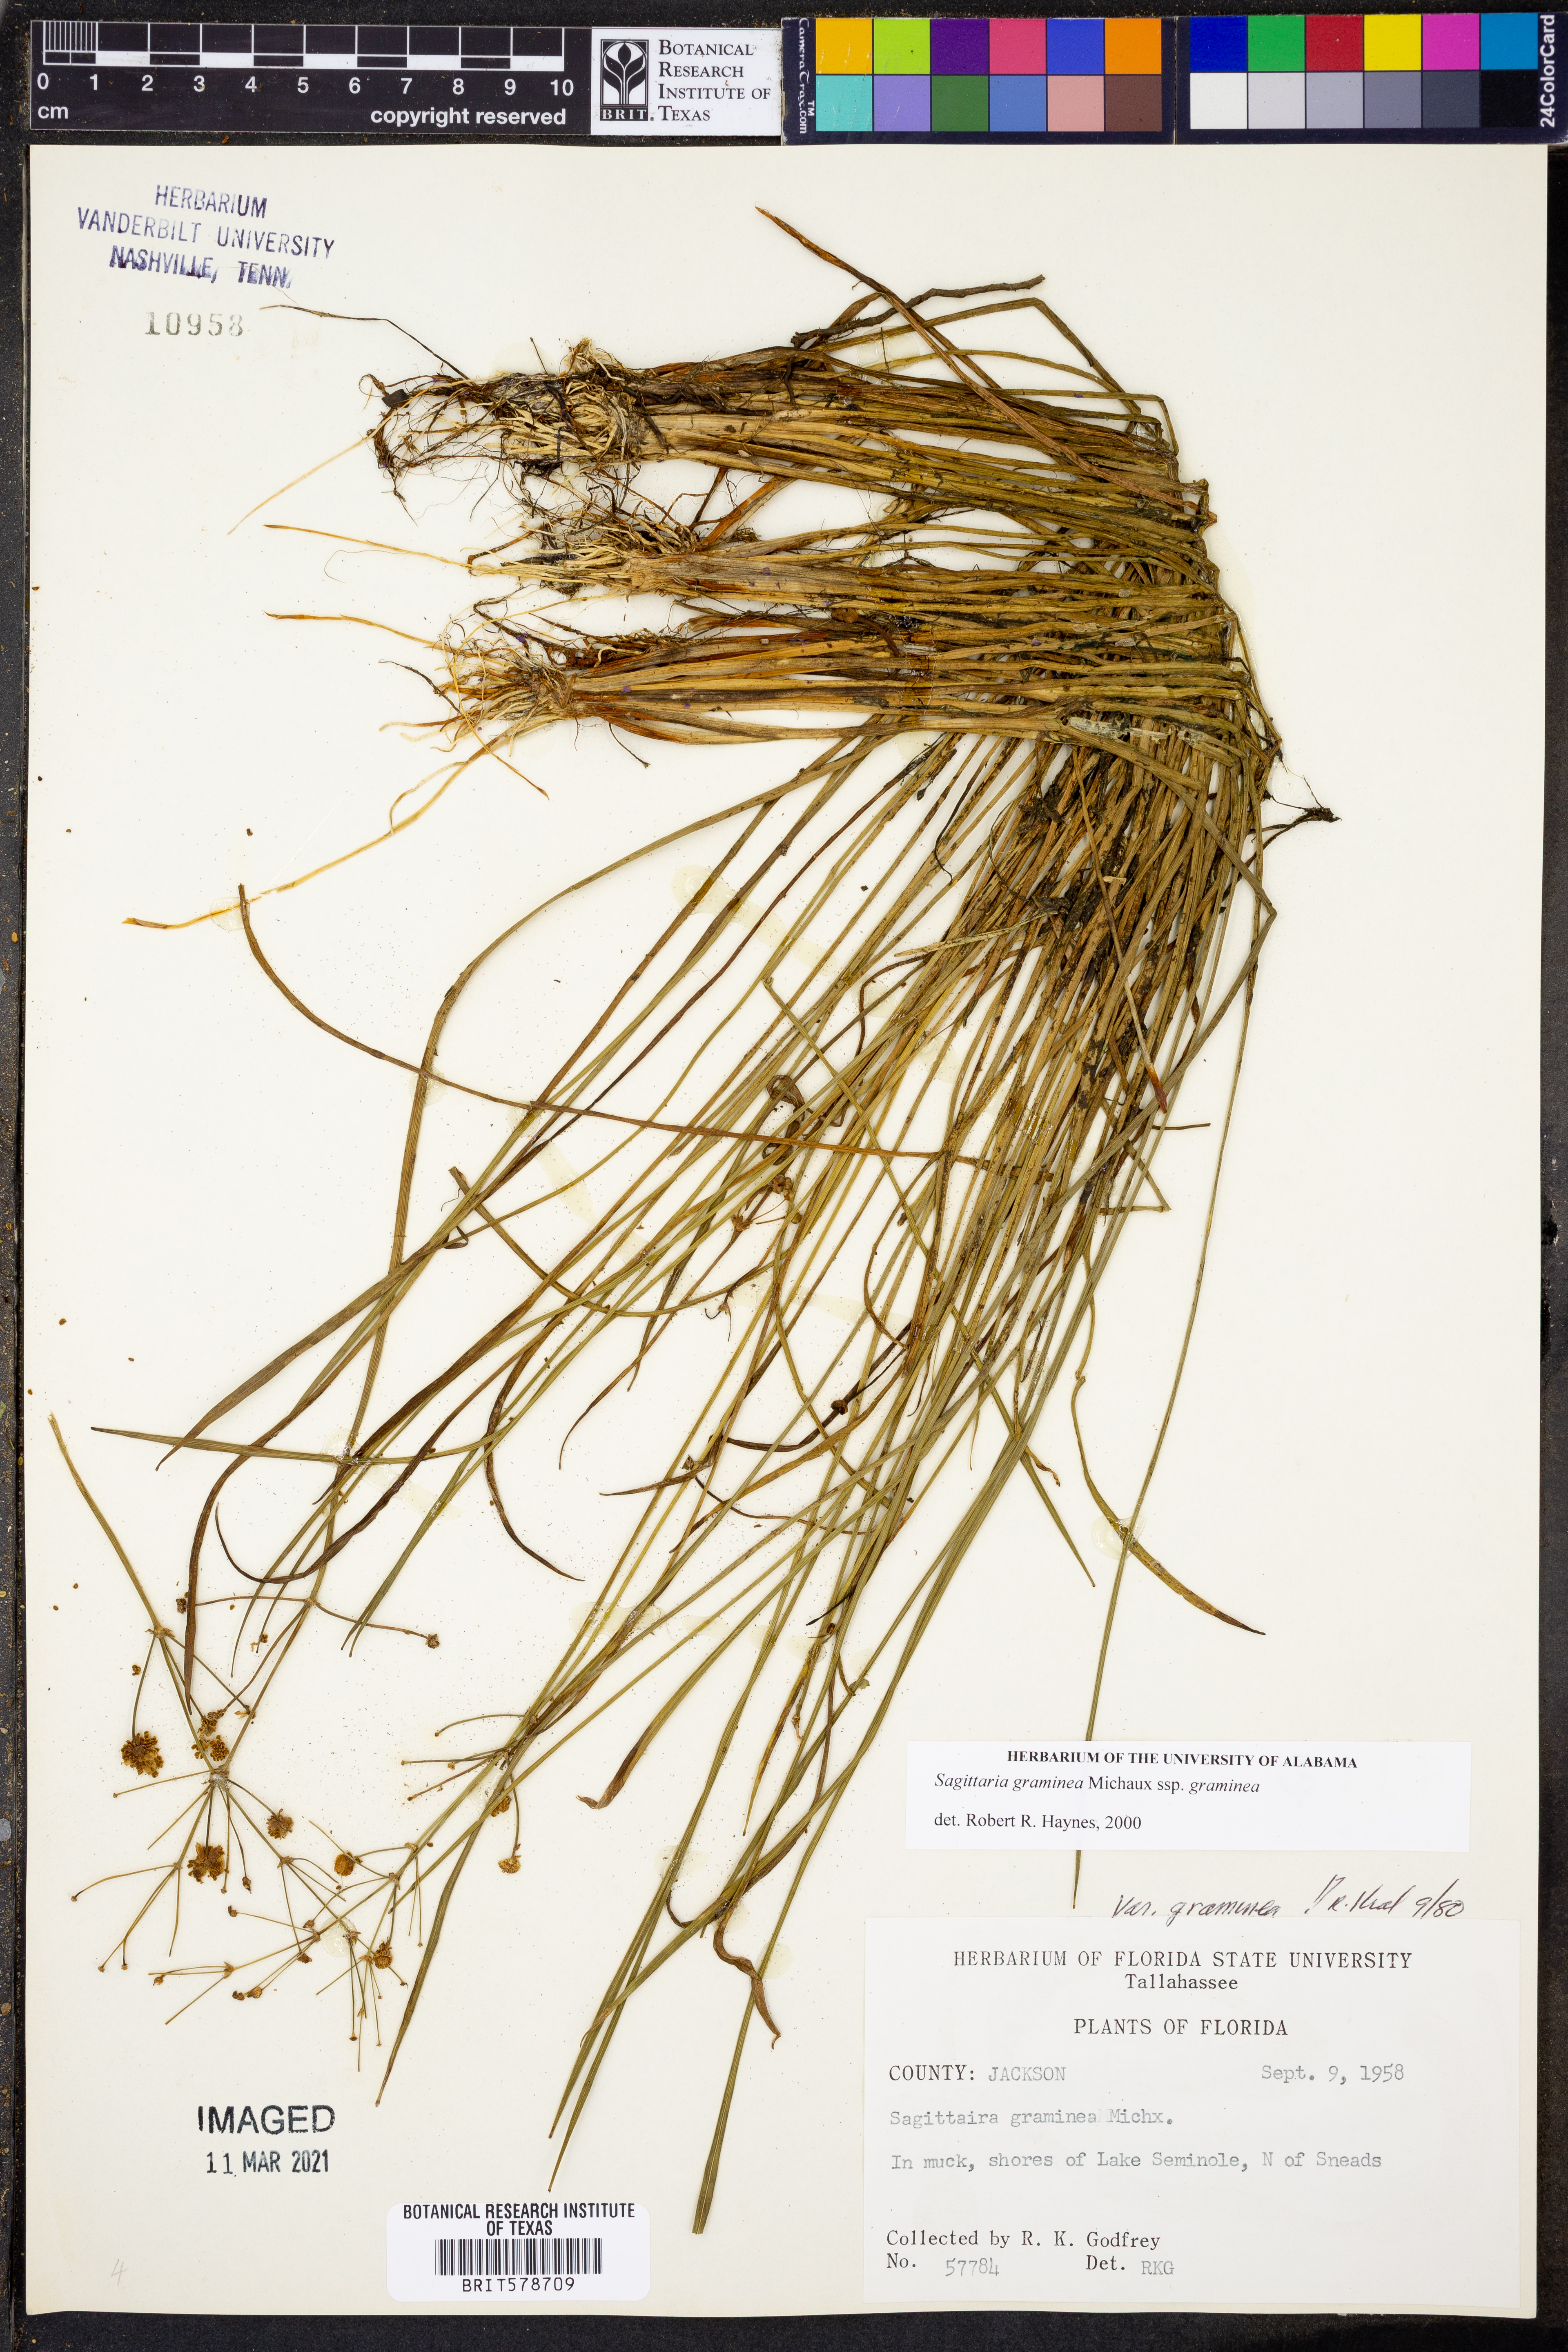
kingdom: Plantae
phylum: Tracheophyta
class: Liliopsida
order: Alismatales
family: Alismataceae
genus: Sagittaria
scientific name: Sagittaria graminea
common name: Grass-leaved arrowhead
